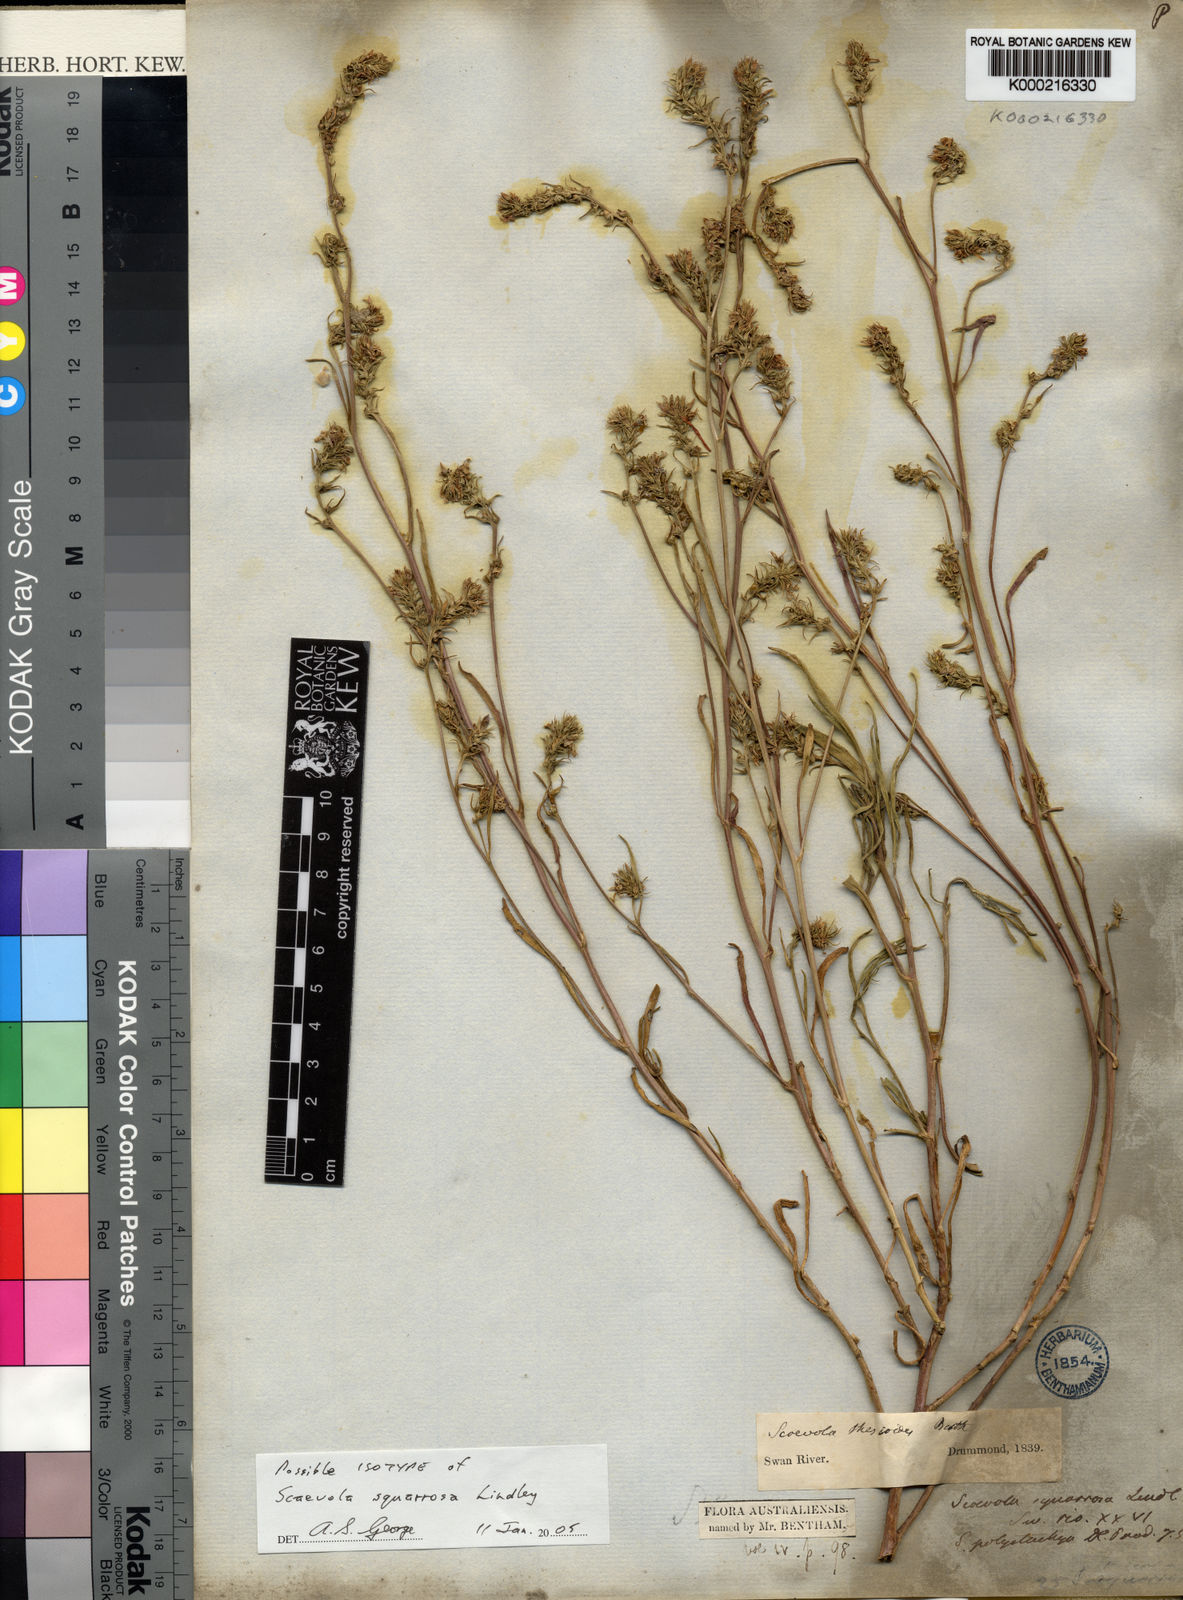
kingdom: Plantae
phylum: Tracheophyta
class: Magnoliopsida
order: Asterales
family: Goodeniaceae
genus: Scaevola
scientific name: Scaevola thesioides
